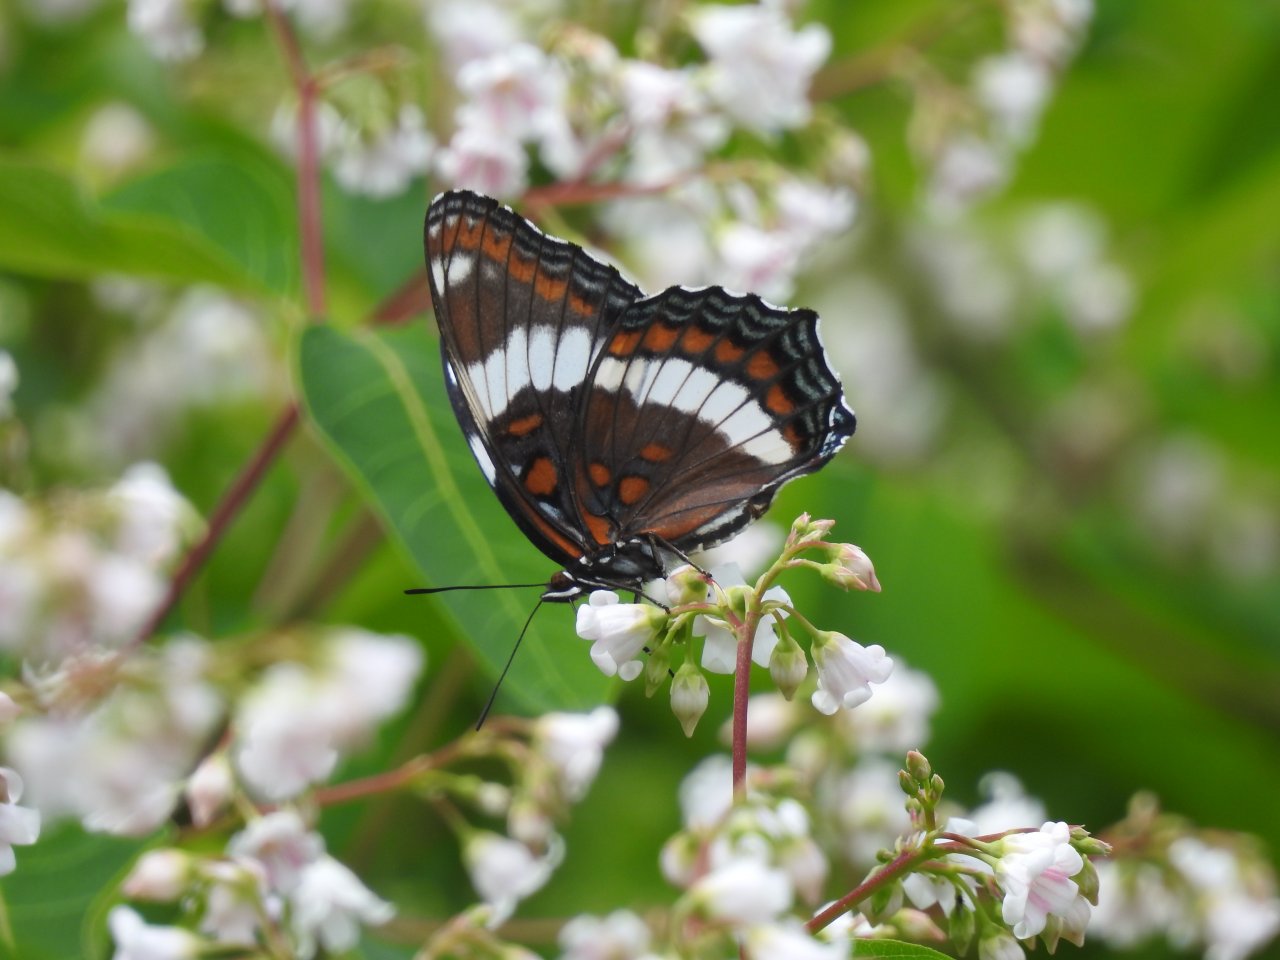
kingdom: Animalia
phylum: Arthropoda
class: Insecta
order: Lepidoptera
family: Nymphalidae
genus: Limenitis
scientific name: Limenitis arthemis
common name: Red-spotted Admiral
